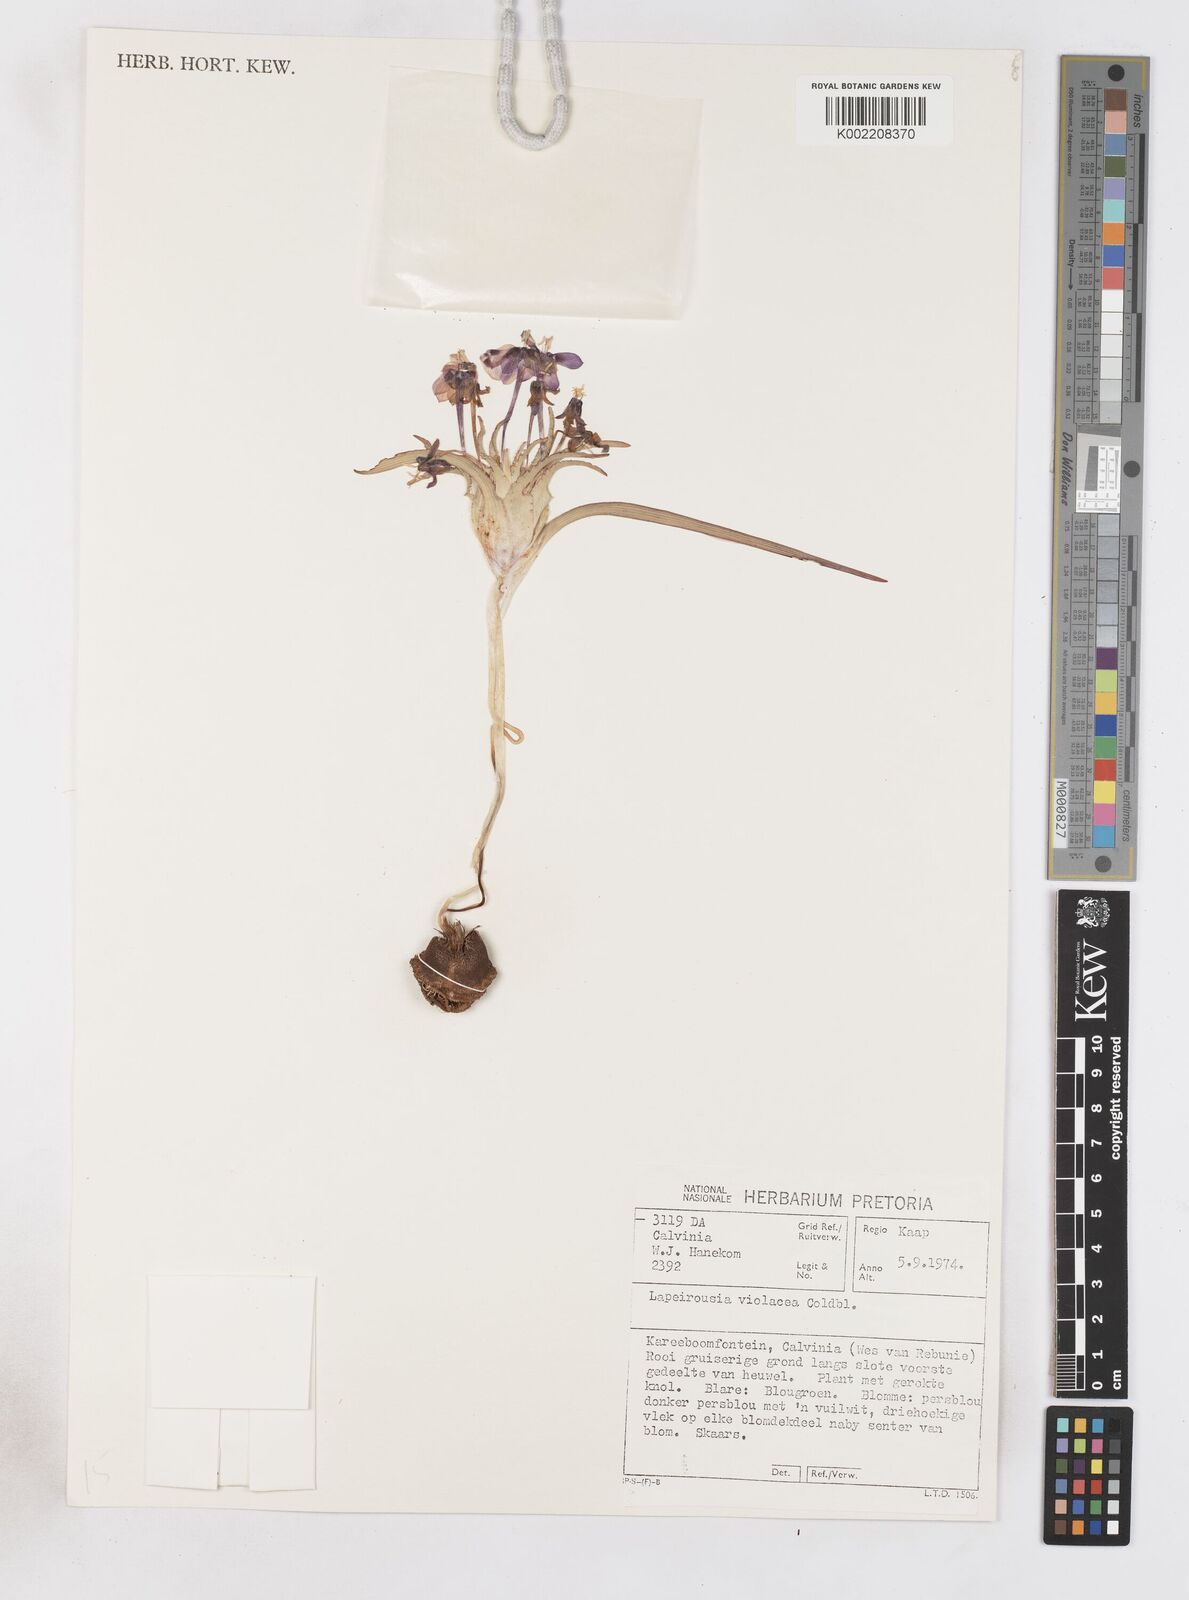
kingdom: Plantae
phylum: Tracheophyta
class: Liliopsida
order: Asparagales
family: Iridaceae
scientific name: Iridaceae
